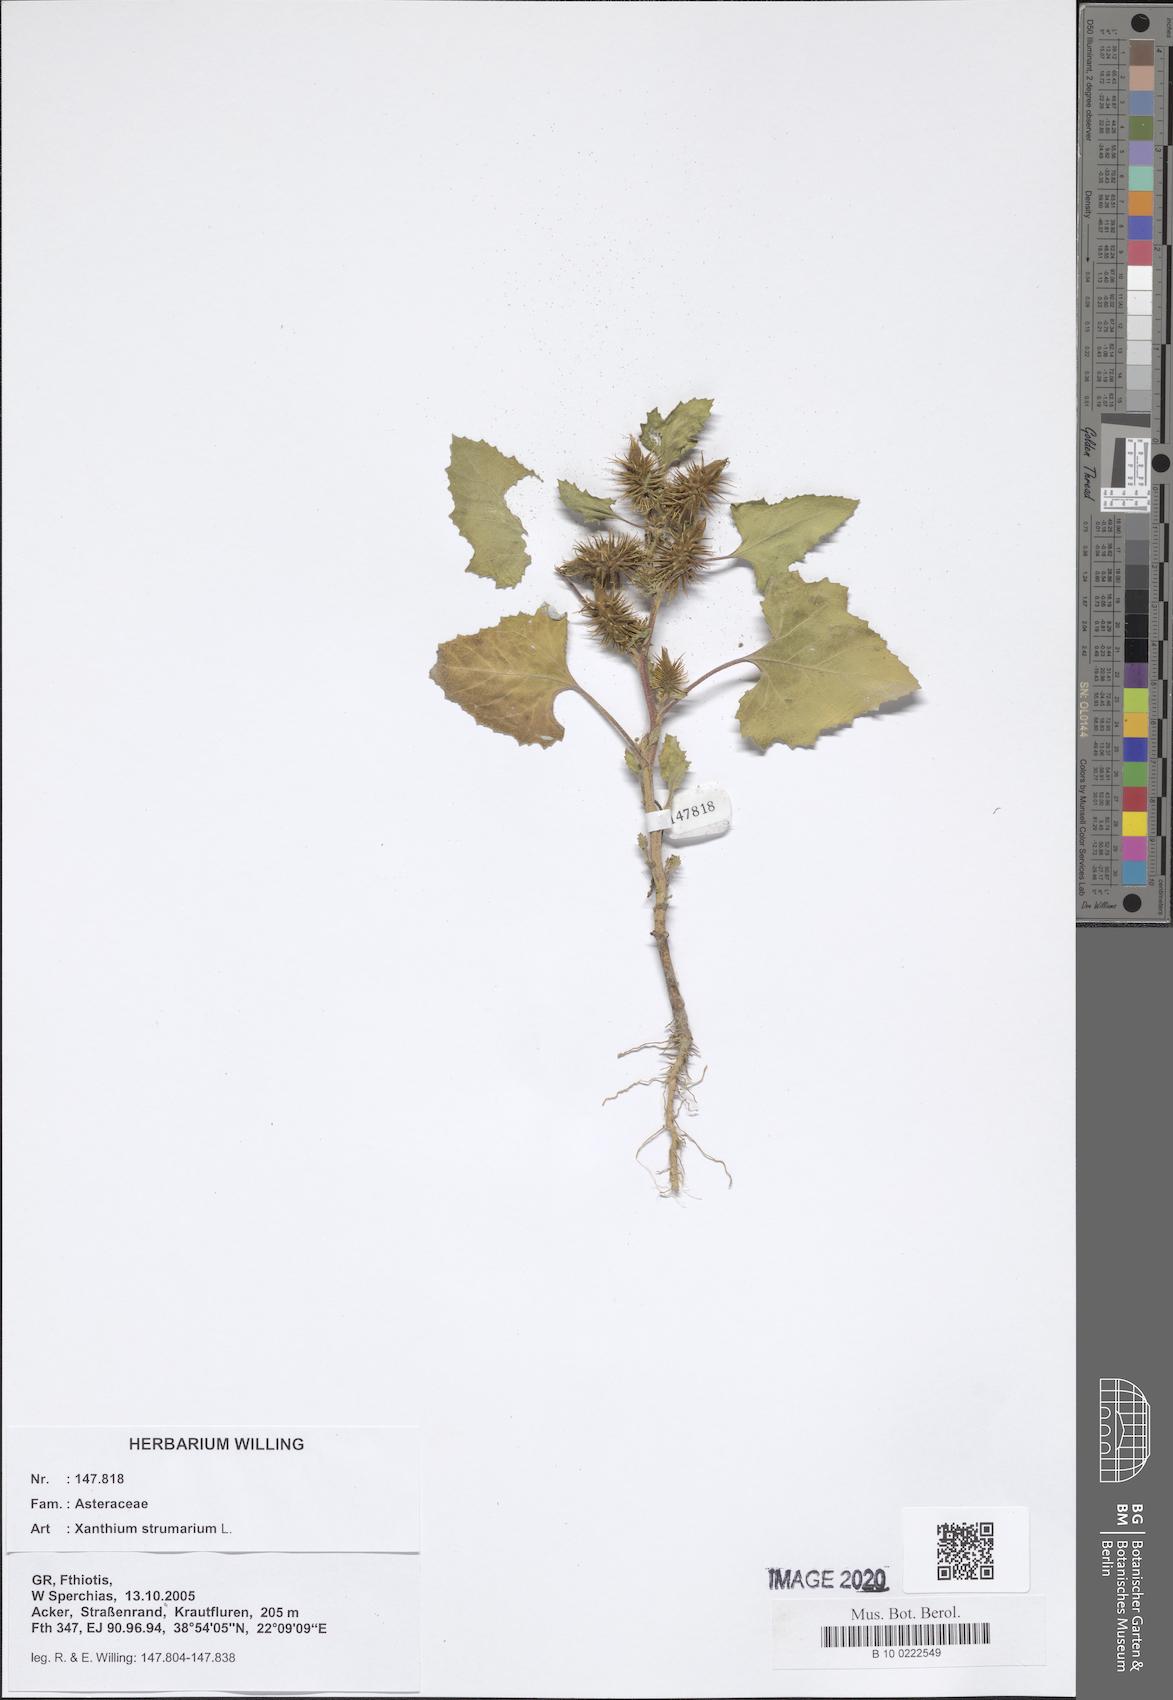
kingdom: Plantae
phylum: Tracheophyta
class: Magnoliopsida
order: Asterales
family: Asteraceae
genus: Xanthium
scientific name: Xanthium strumarium
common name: Rough cocklebur
